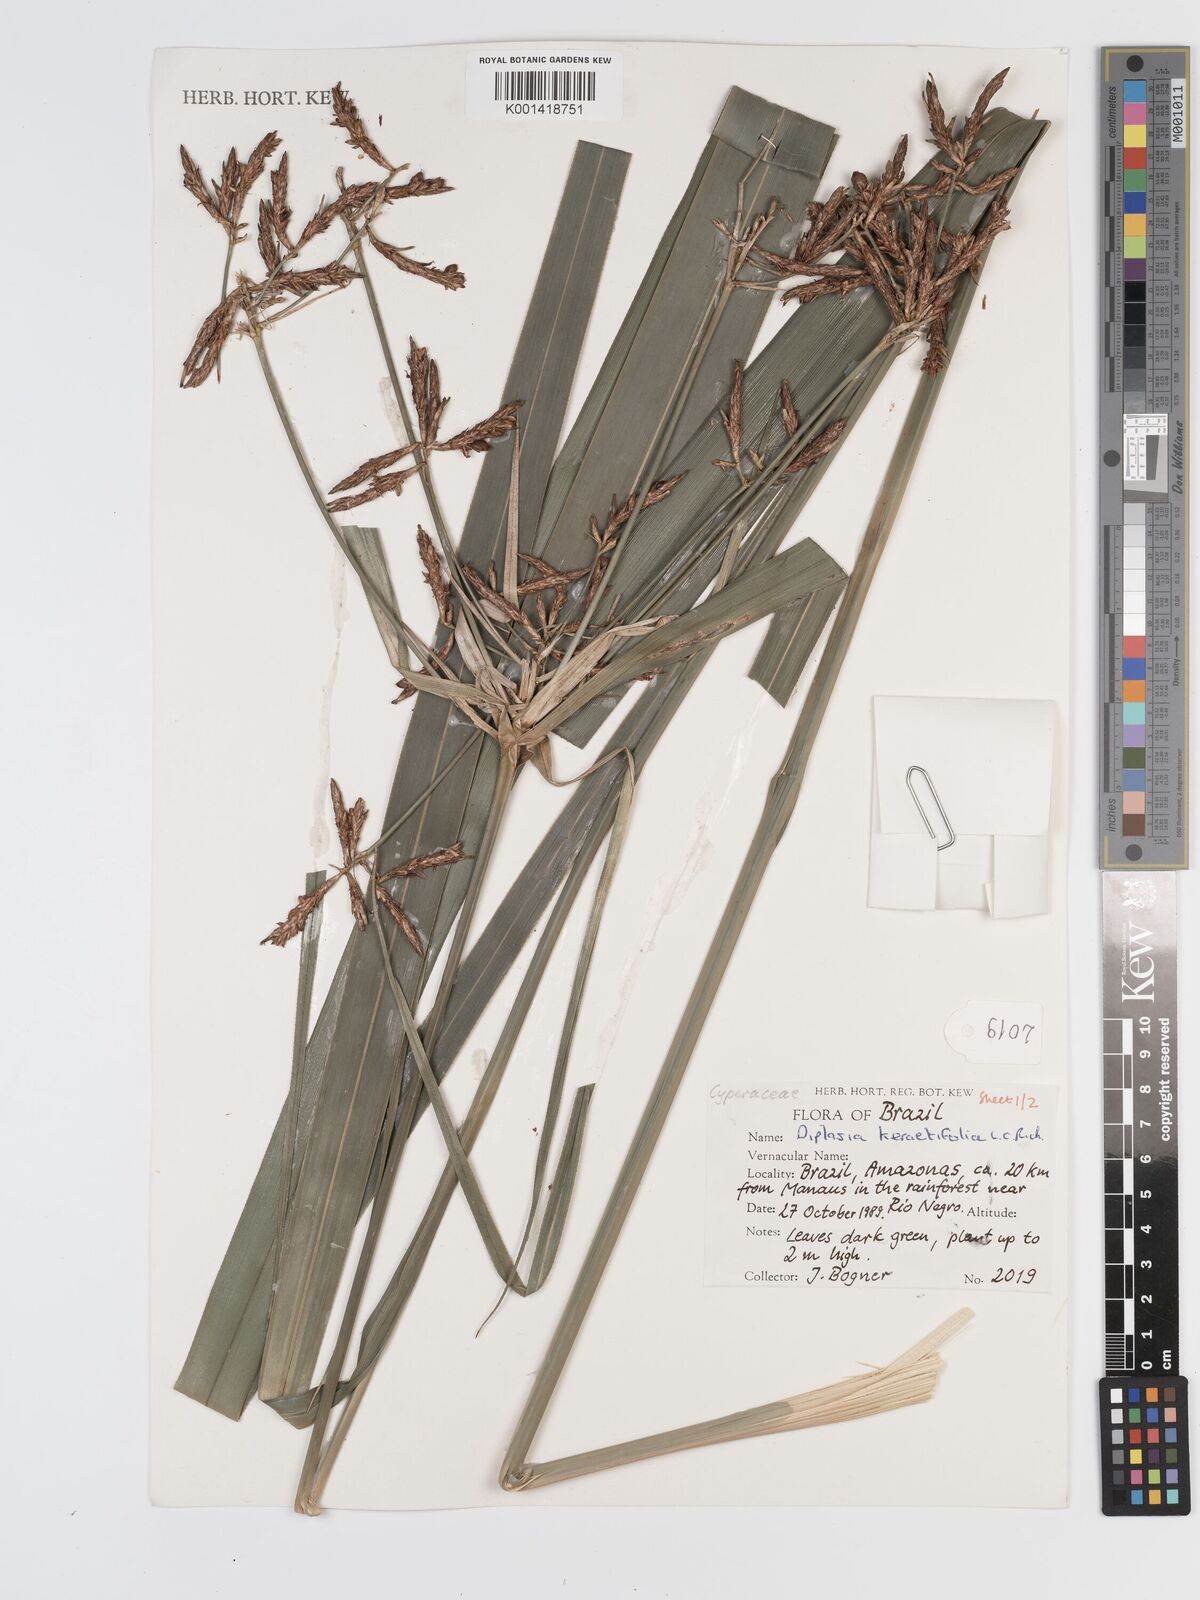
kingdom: Plantae
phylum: Tracheophyta
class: Liliopsida
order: Poales
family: Cyperaceae
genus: Diplasia
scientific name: Diplasia karatifolia
